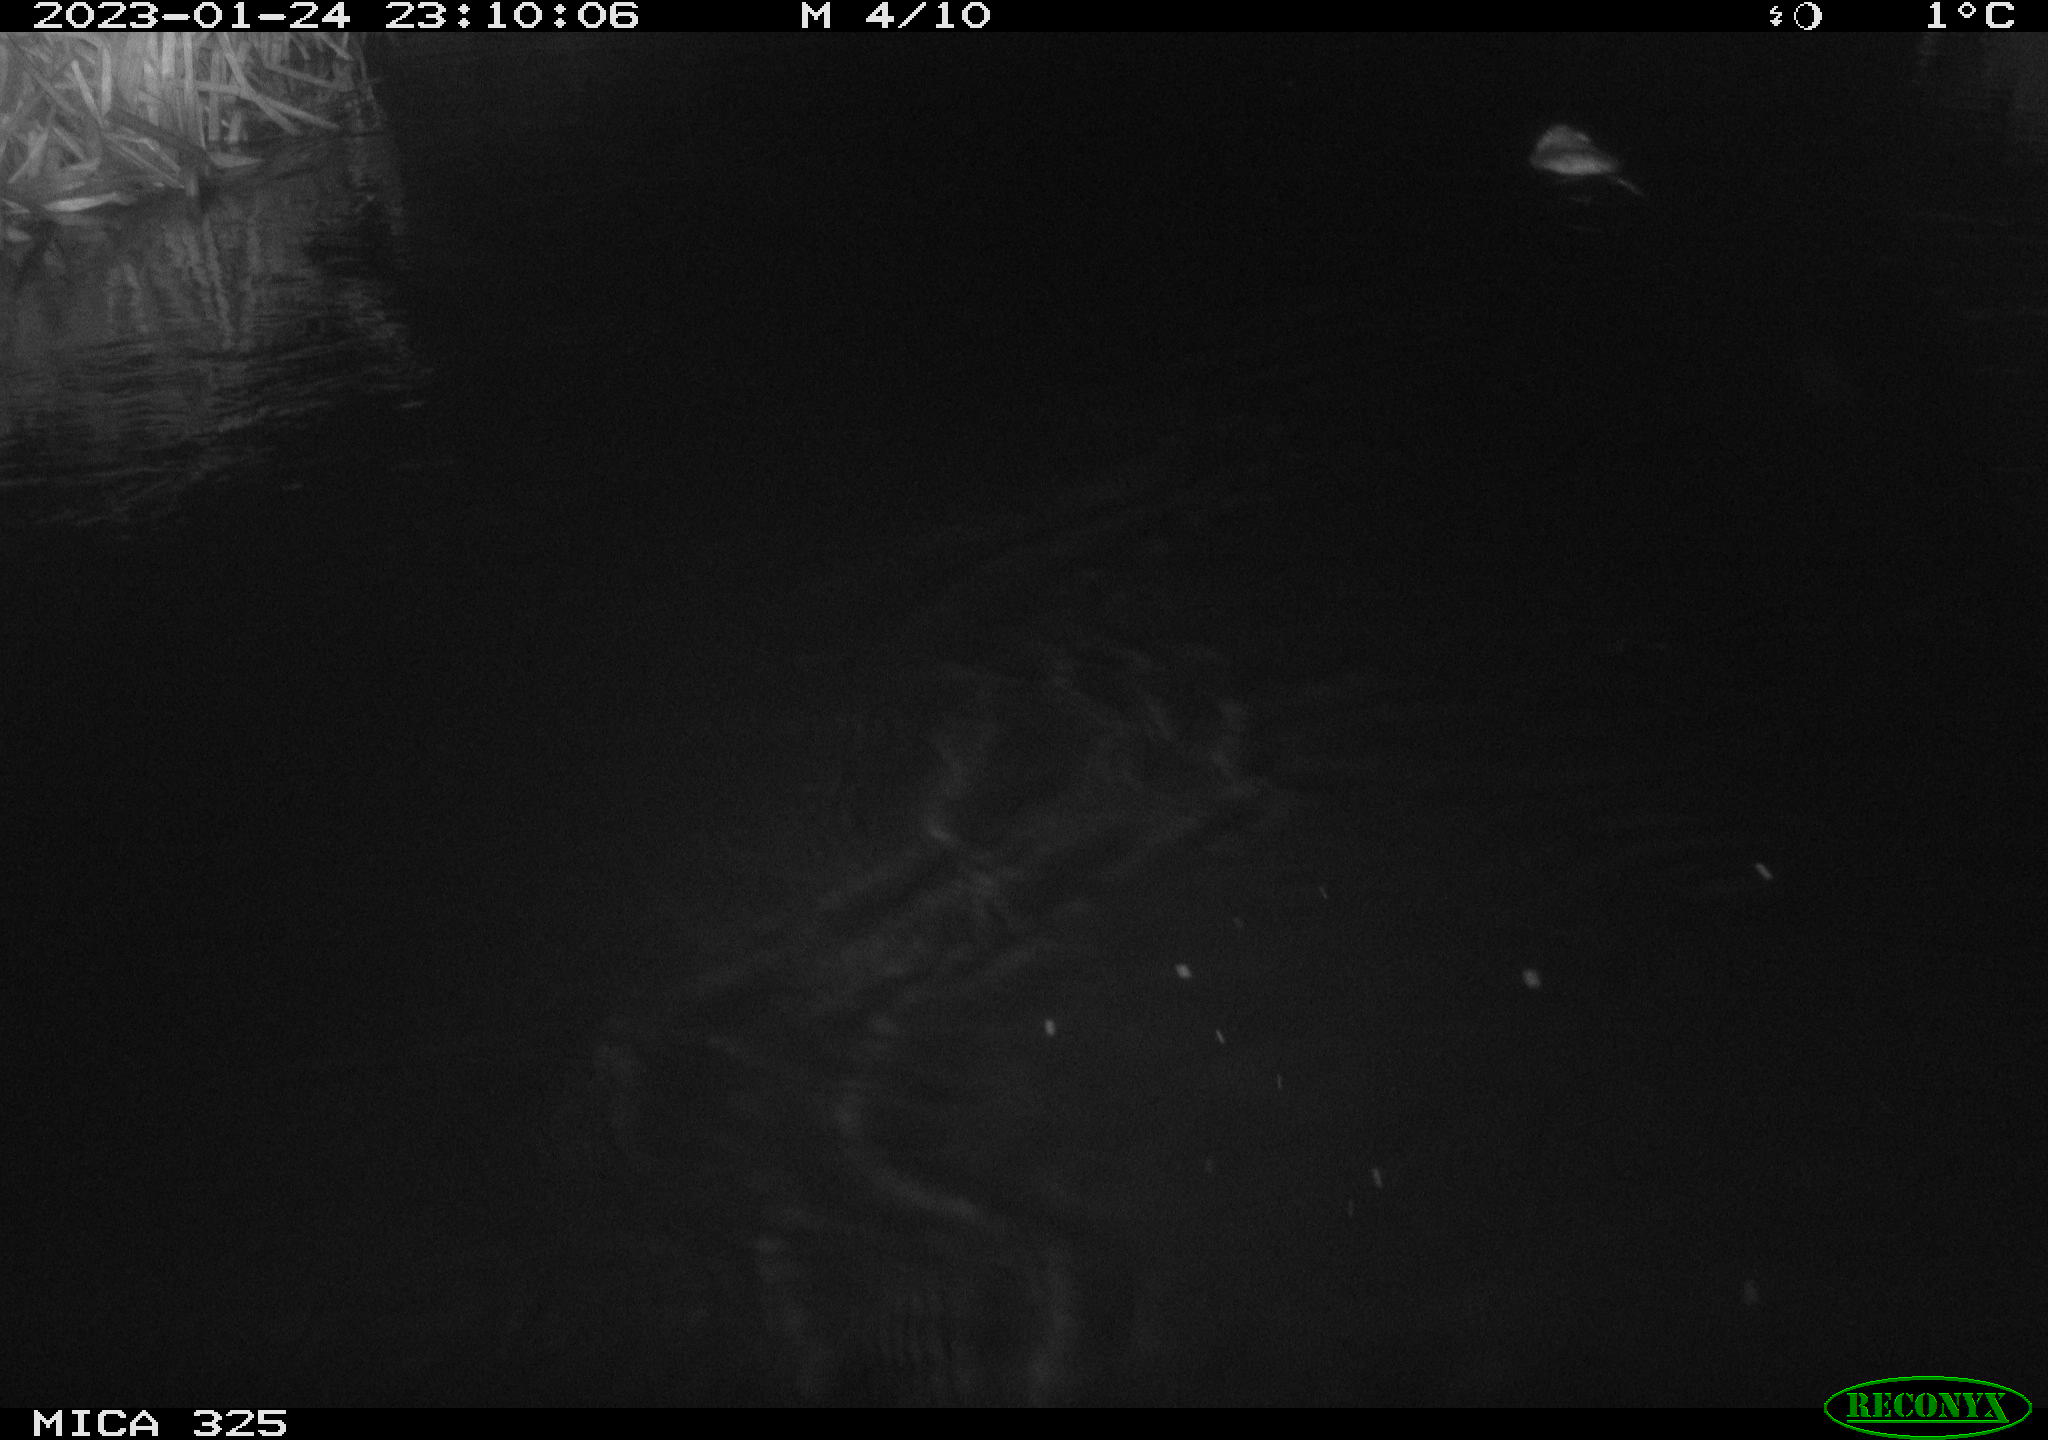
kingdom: Animalia
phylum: Chordata
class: Mammalia
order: Rodentia
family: Cricetidae
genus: Ondatra
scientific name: Ondatra zibethicus
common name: Muskrat
